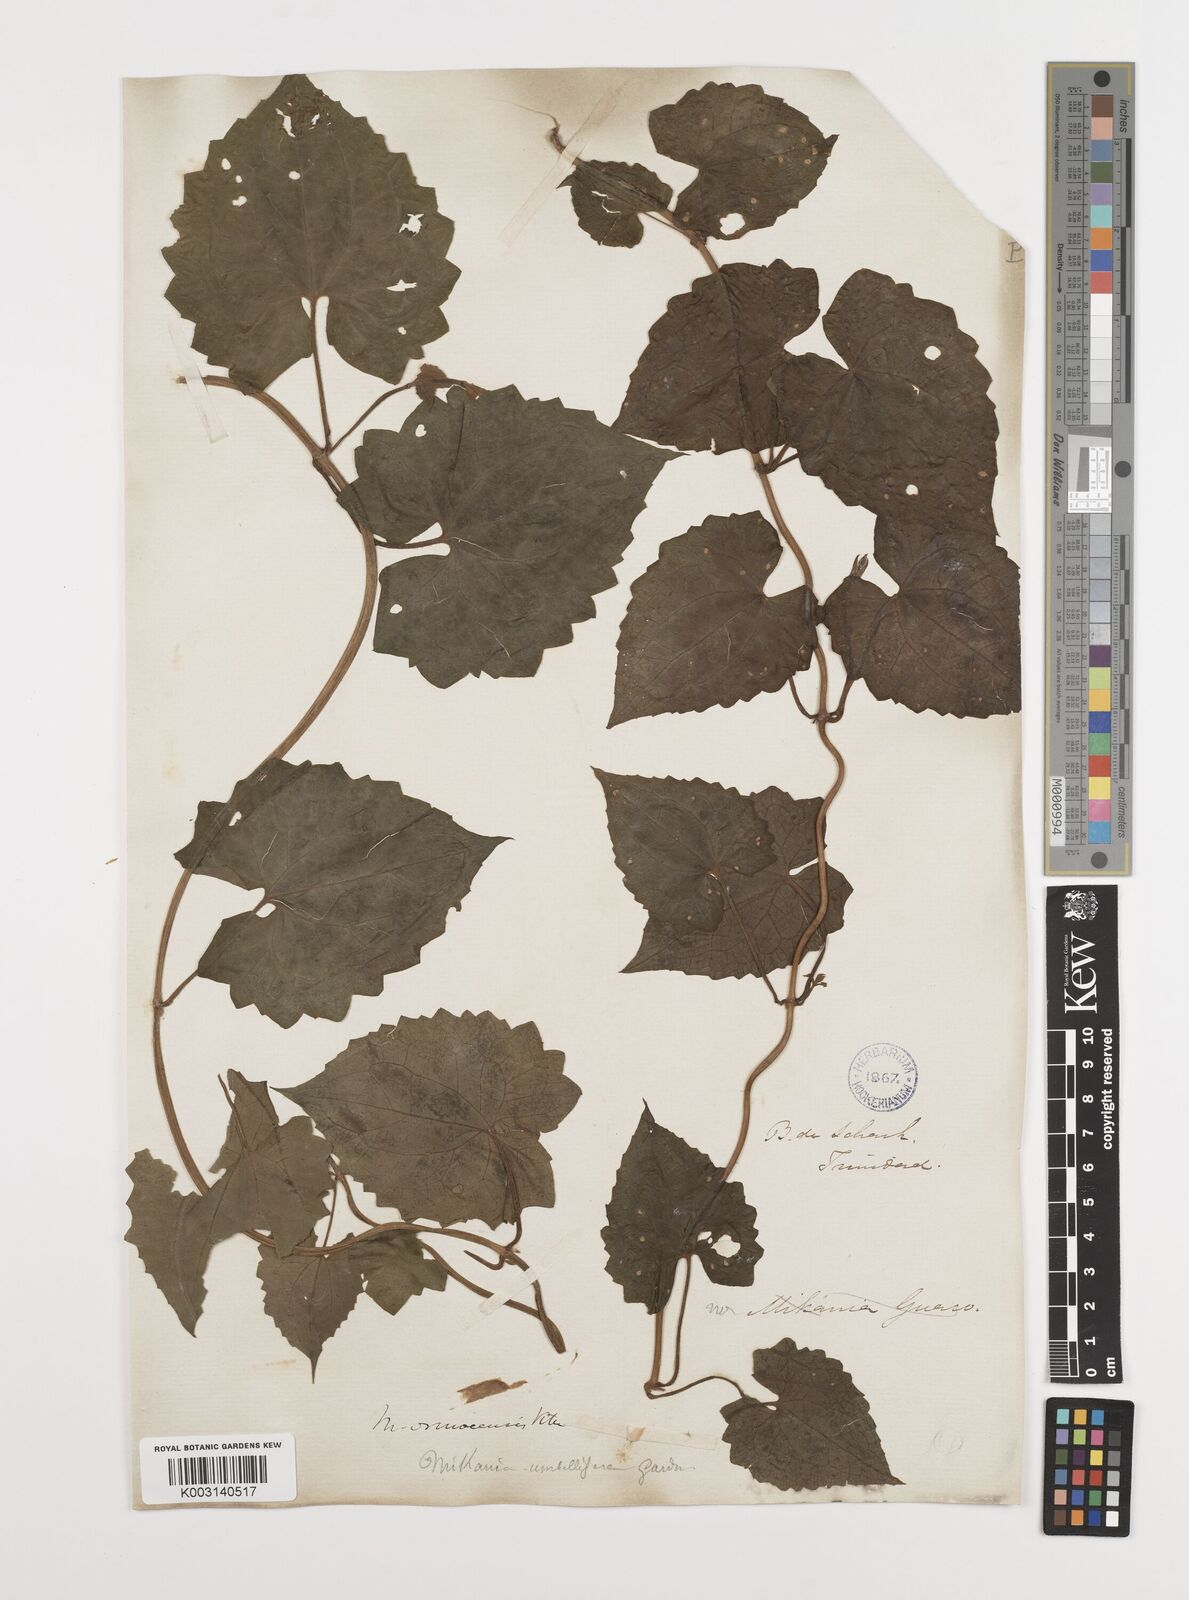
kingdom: Plantae
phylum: Tracheophyta
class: Magnoliopsida
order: Asterales
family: Asteraceae
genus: Mikania
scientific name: Mikania micrantha
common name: Mile-a-minute
